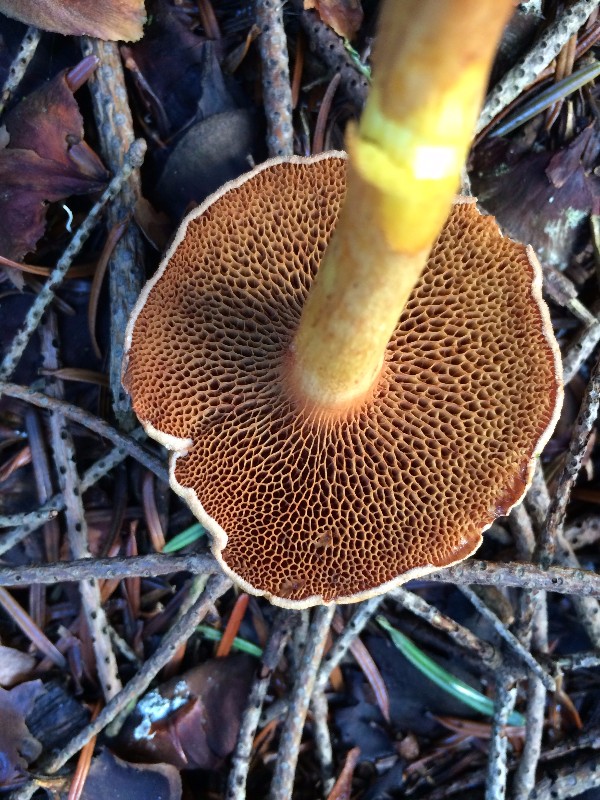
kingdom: Fungi
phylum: Basidiomycota
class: Agaricomycetes
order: Boletales
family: Suillaceae
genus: Suillus
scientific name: Suillus bovinus
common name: grovporet slimrørhat
